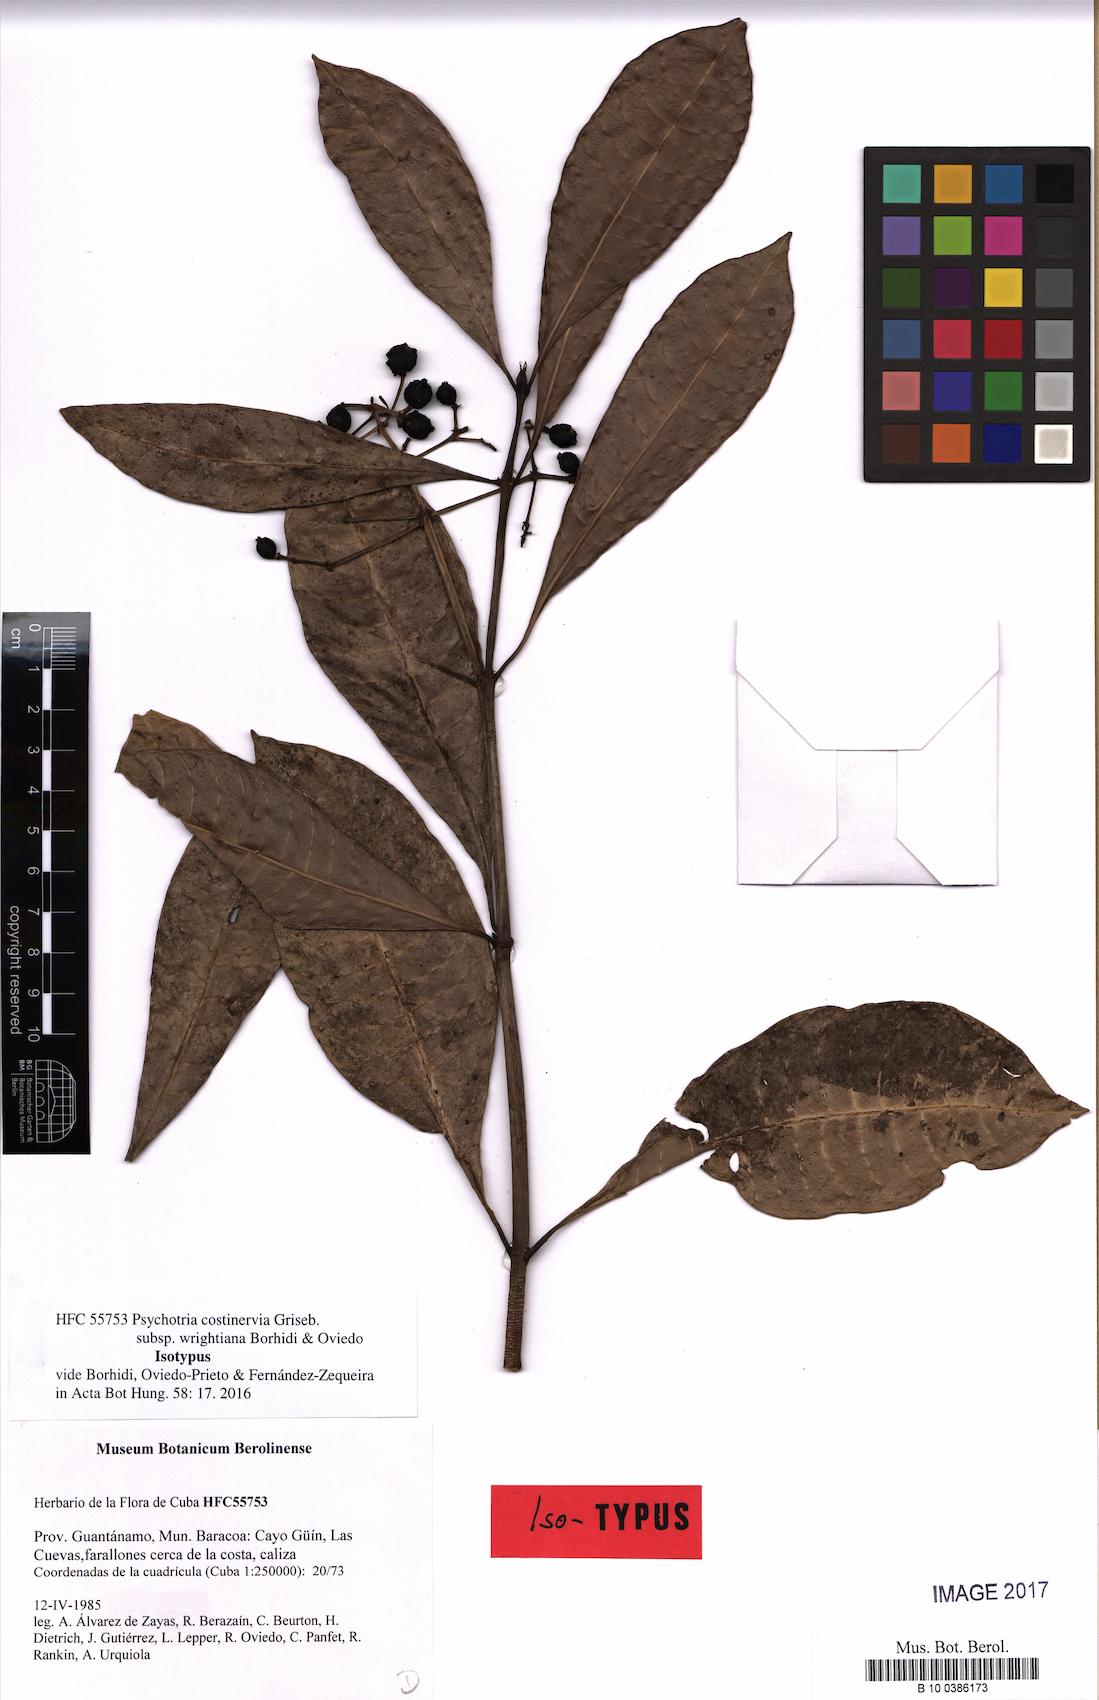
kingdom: Plantae
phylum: Tracheophyta
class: Magnoliopsida
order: Gentianales
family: Rubiaceae
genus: Psychotria
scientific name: Psychotria costivenia
